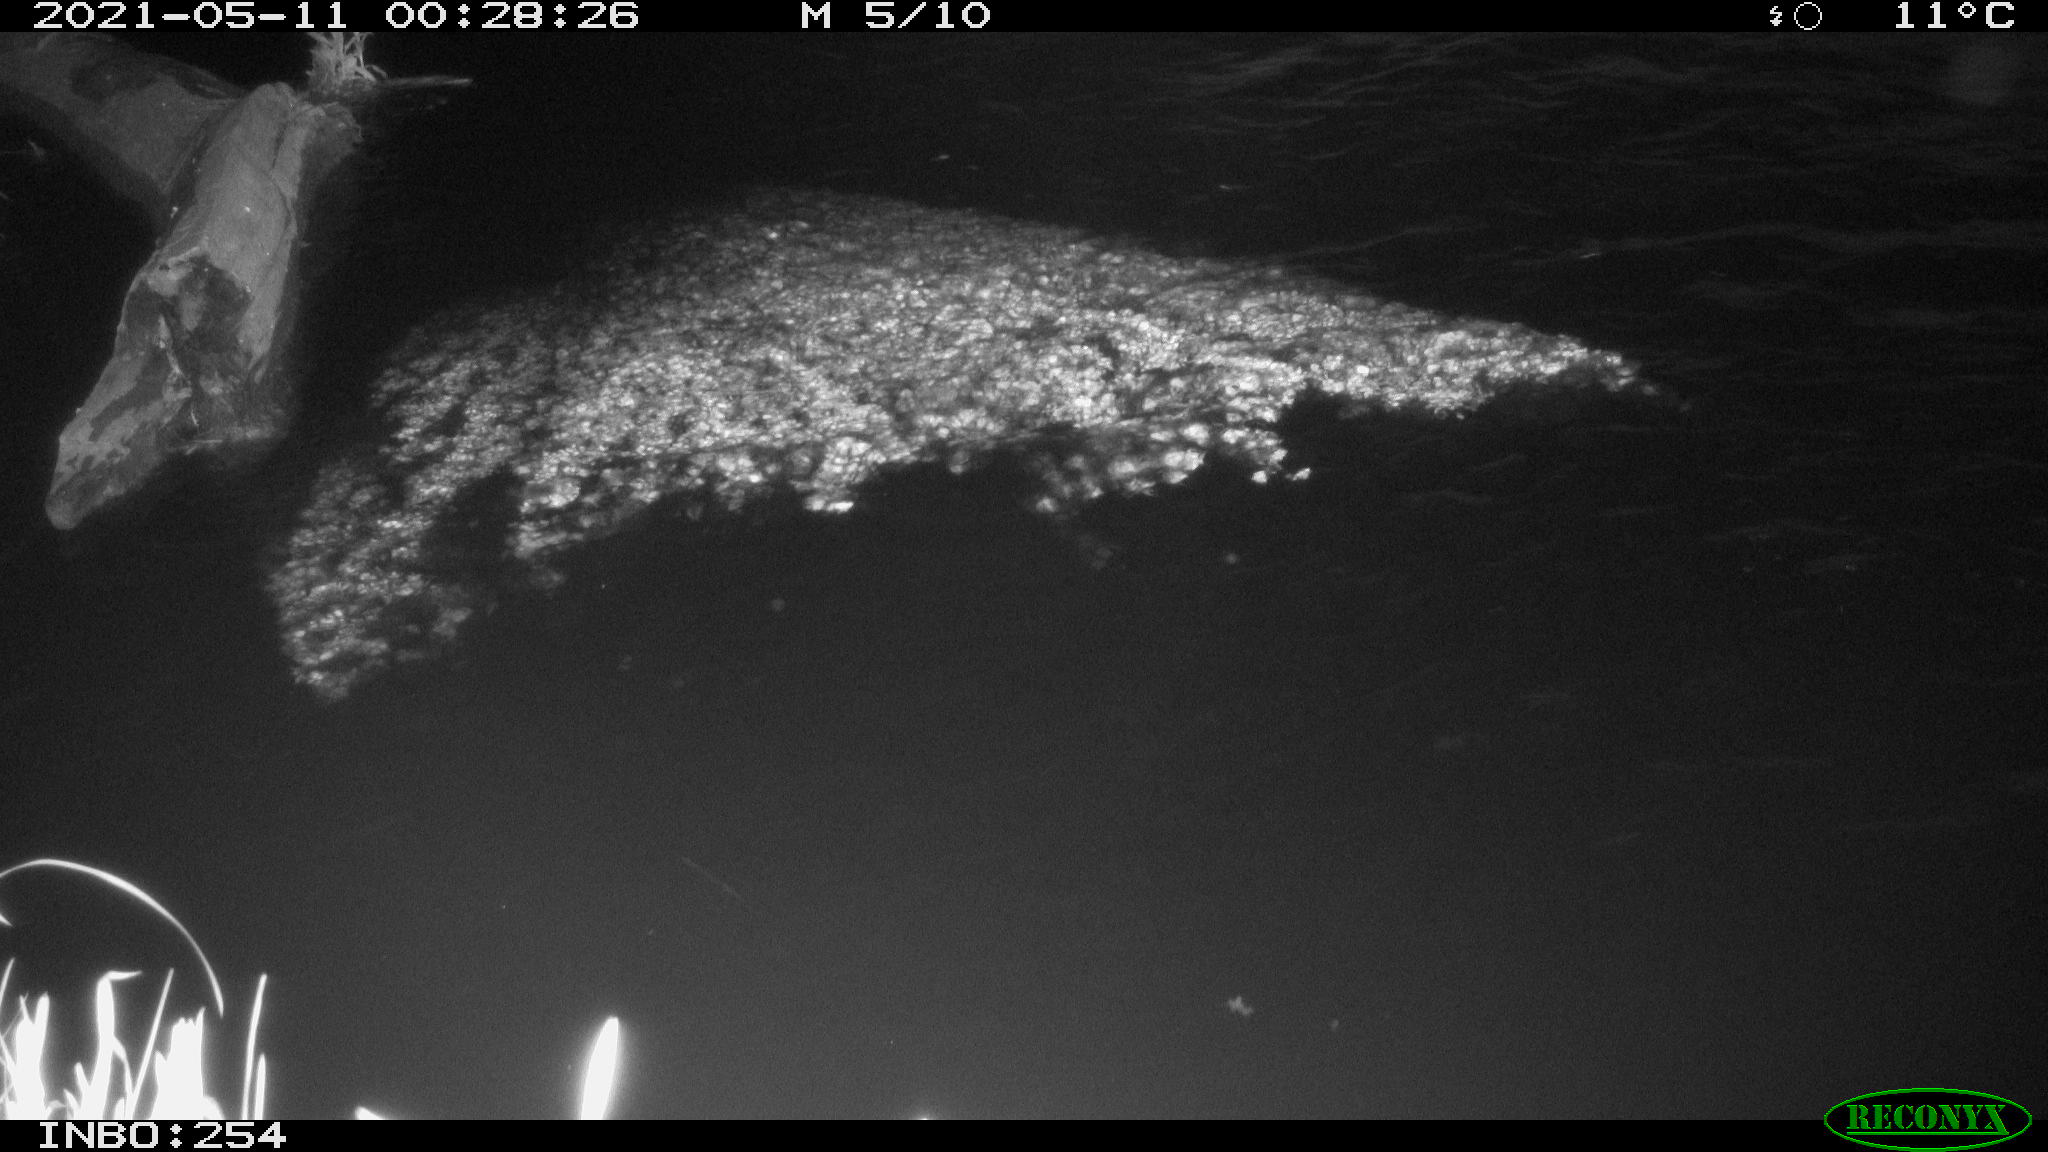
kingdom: Animalia
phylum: Chordata
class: Aves
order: Anseriformes
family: Anatidae
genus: Anas
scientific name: Anas platyrhynchos
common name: Mallard
